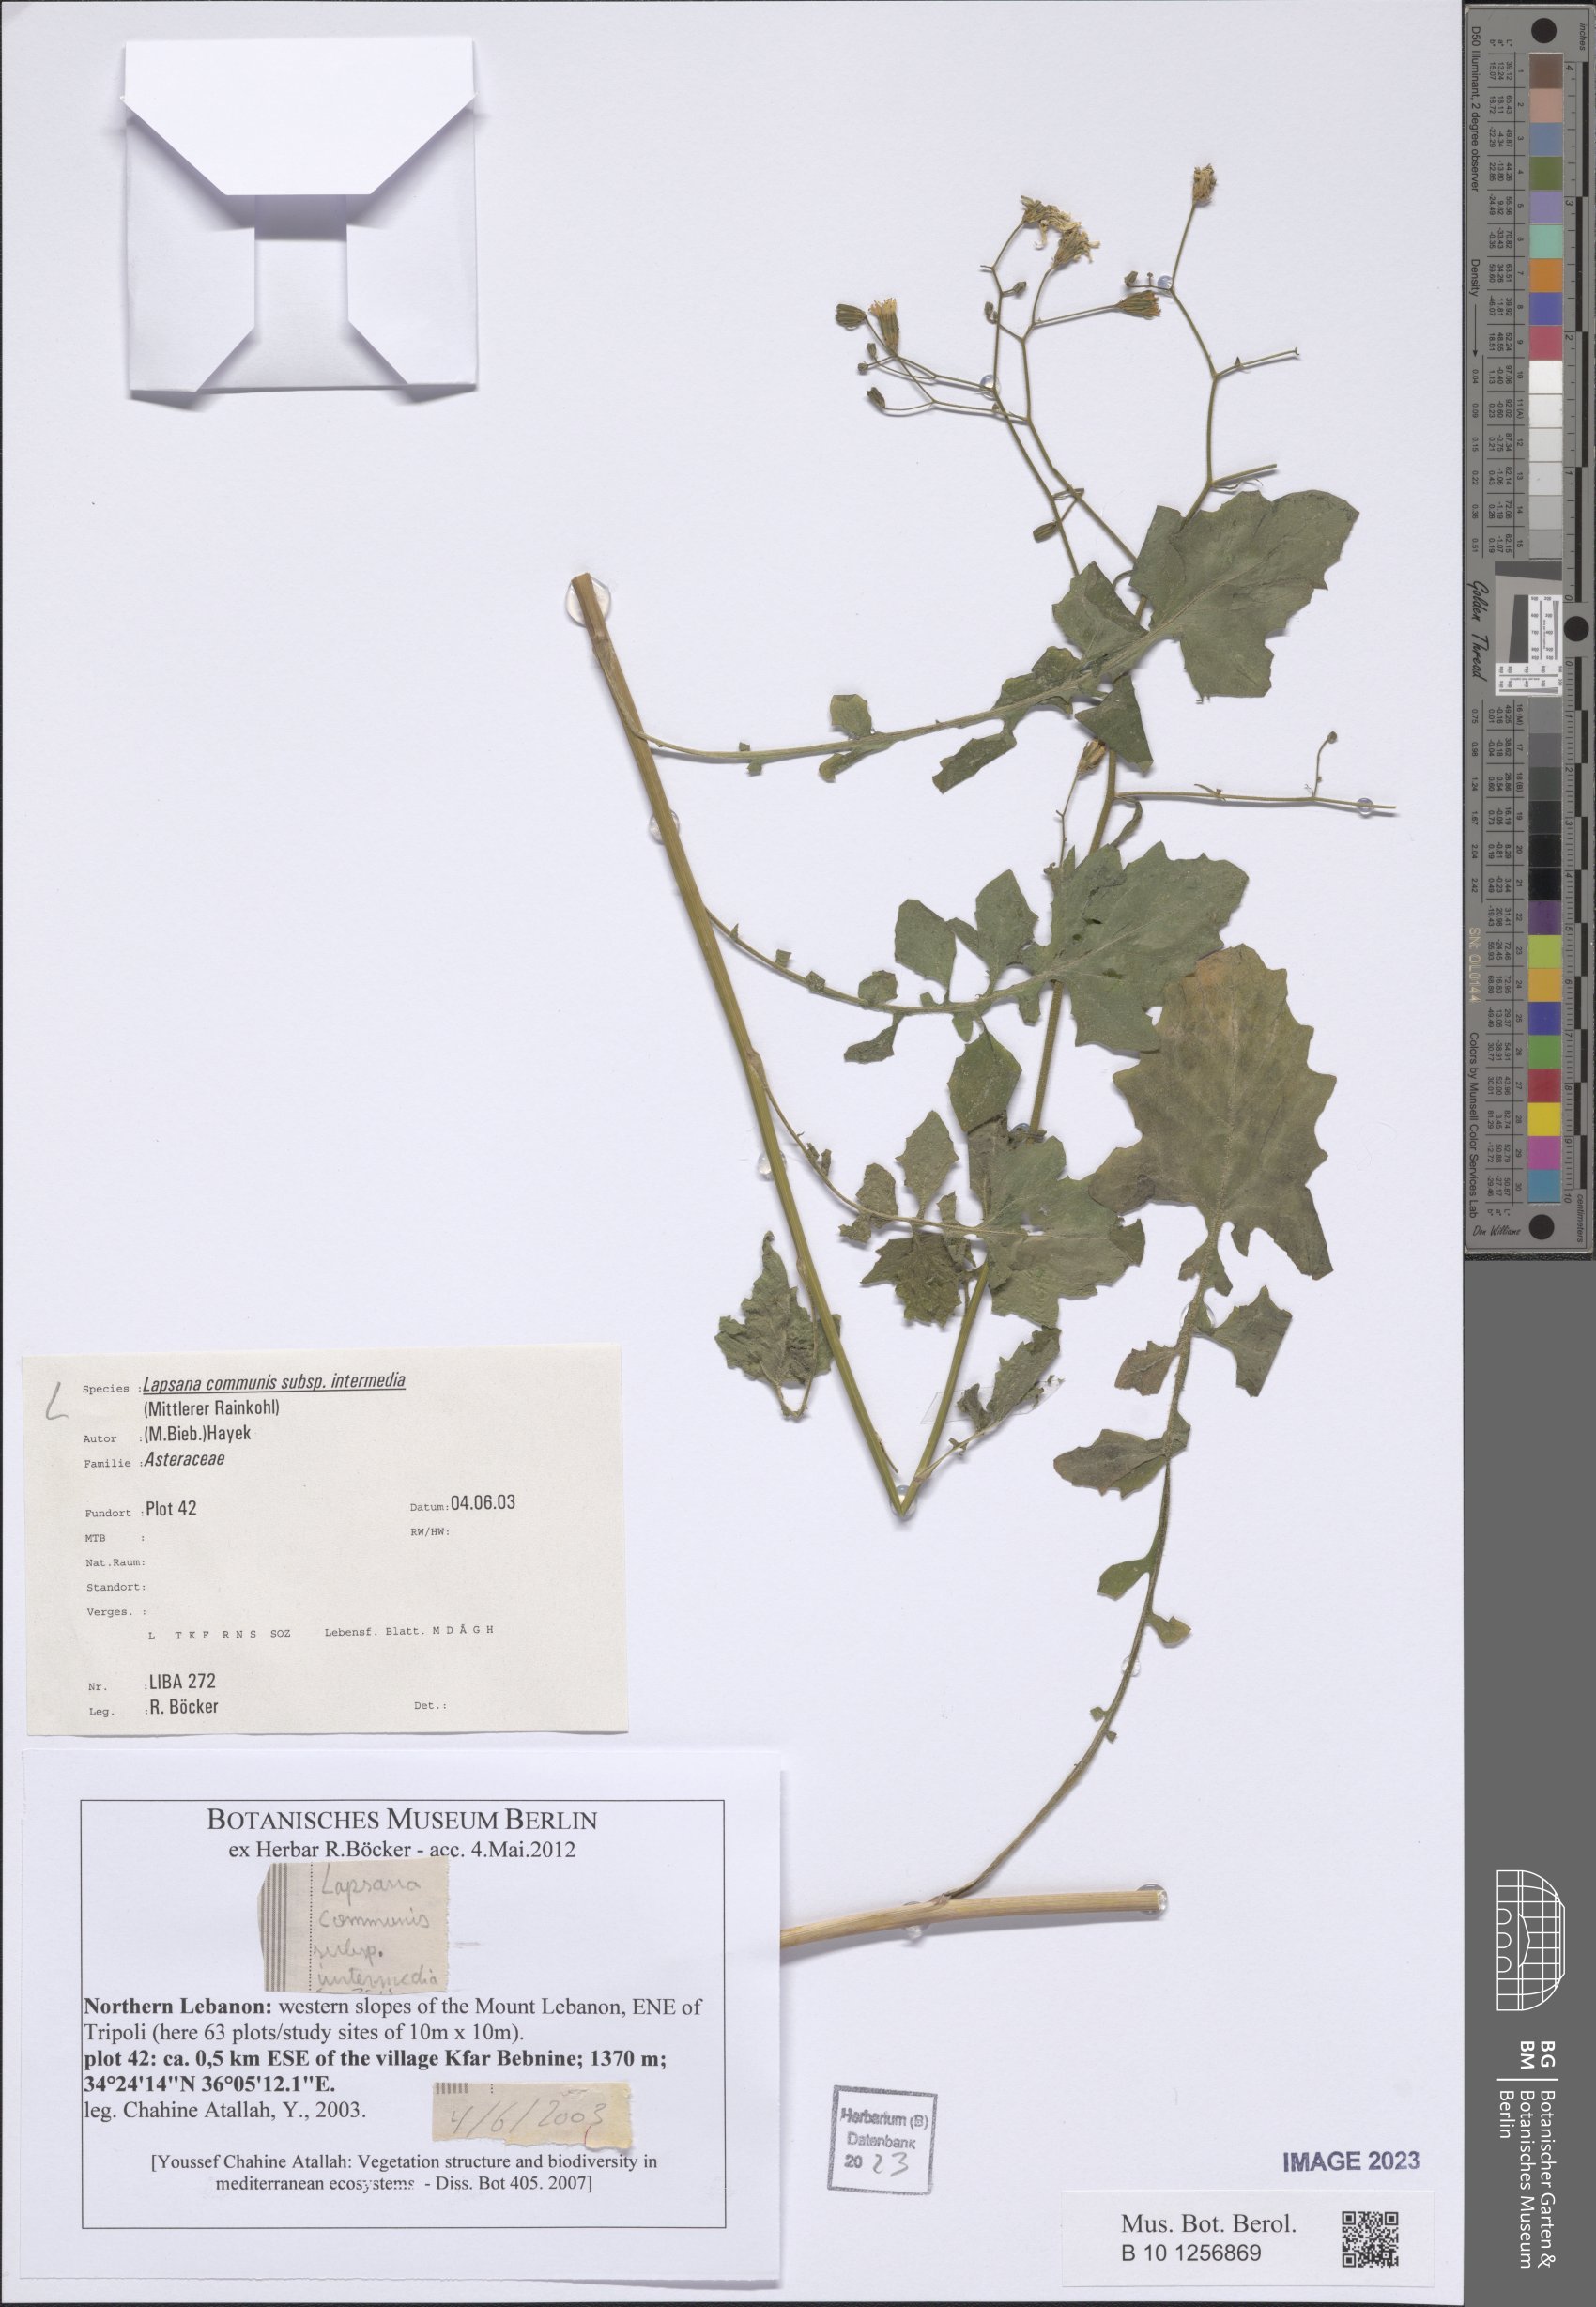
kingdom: Plantae
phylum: Tracheophyta
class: Magnoliopsida
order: Asterales
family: Asteraceae
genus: Lapsana
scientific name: Lapsana communis
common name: Nipplewort
